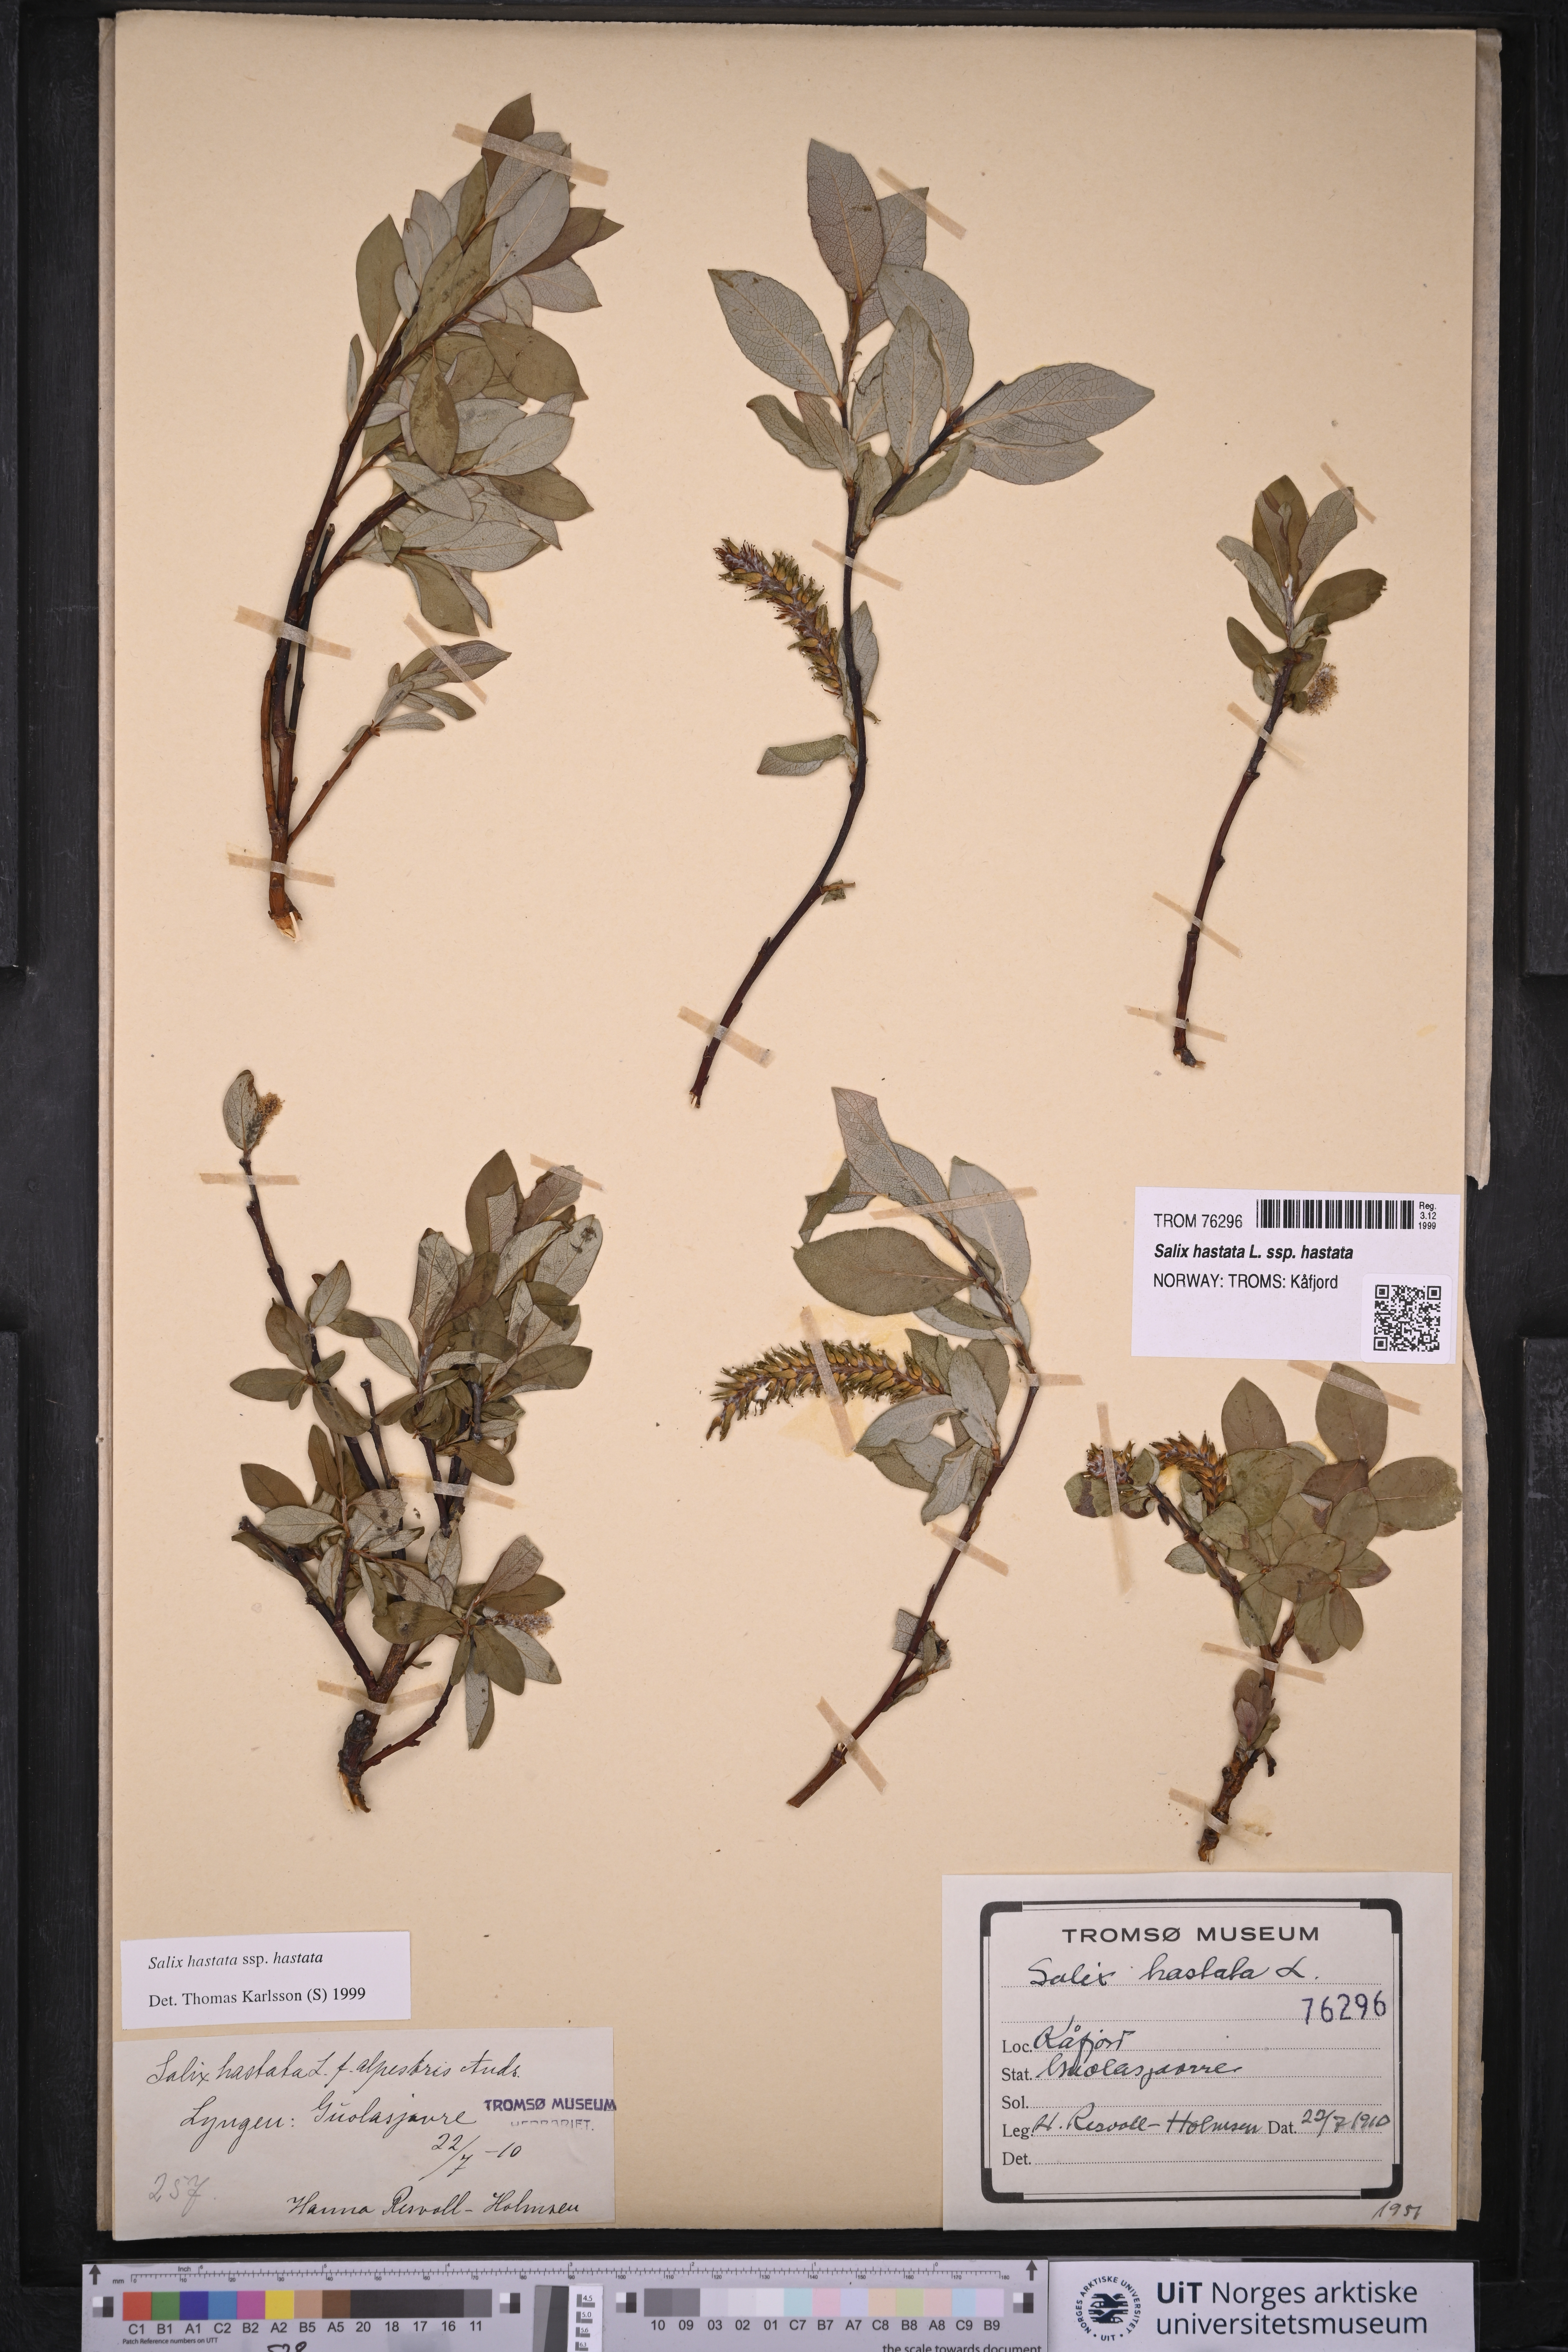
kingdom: Plantae
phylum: Tracheophyta
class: Magnoliopsida
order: Malpighiales
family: Salicaceae
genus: Salix
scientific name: Salix hastata
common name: Halberd willow
